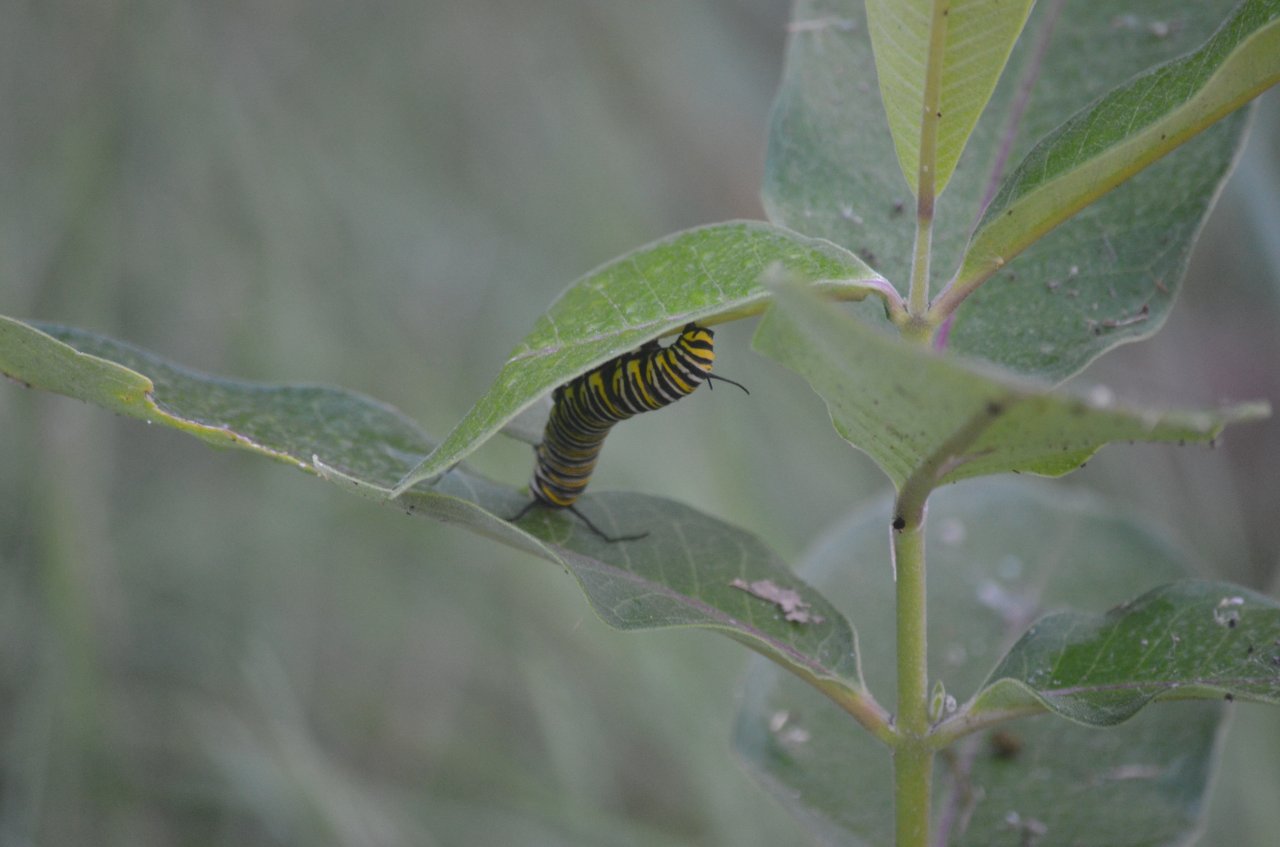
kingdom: Animalia
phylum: Arthropoda
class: Insecta
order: Lepidoptera
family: Nymphalidae
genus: Danaus
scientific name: Danaus plexippus
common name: Monarch
